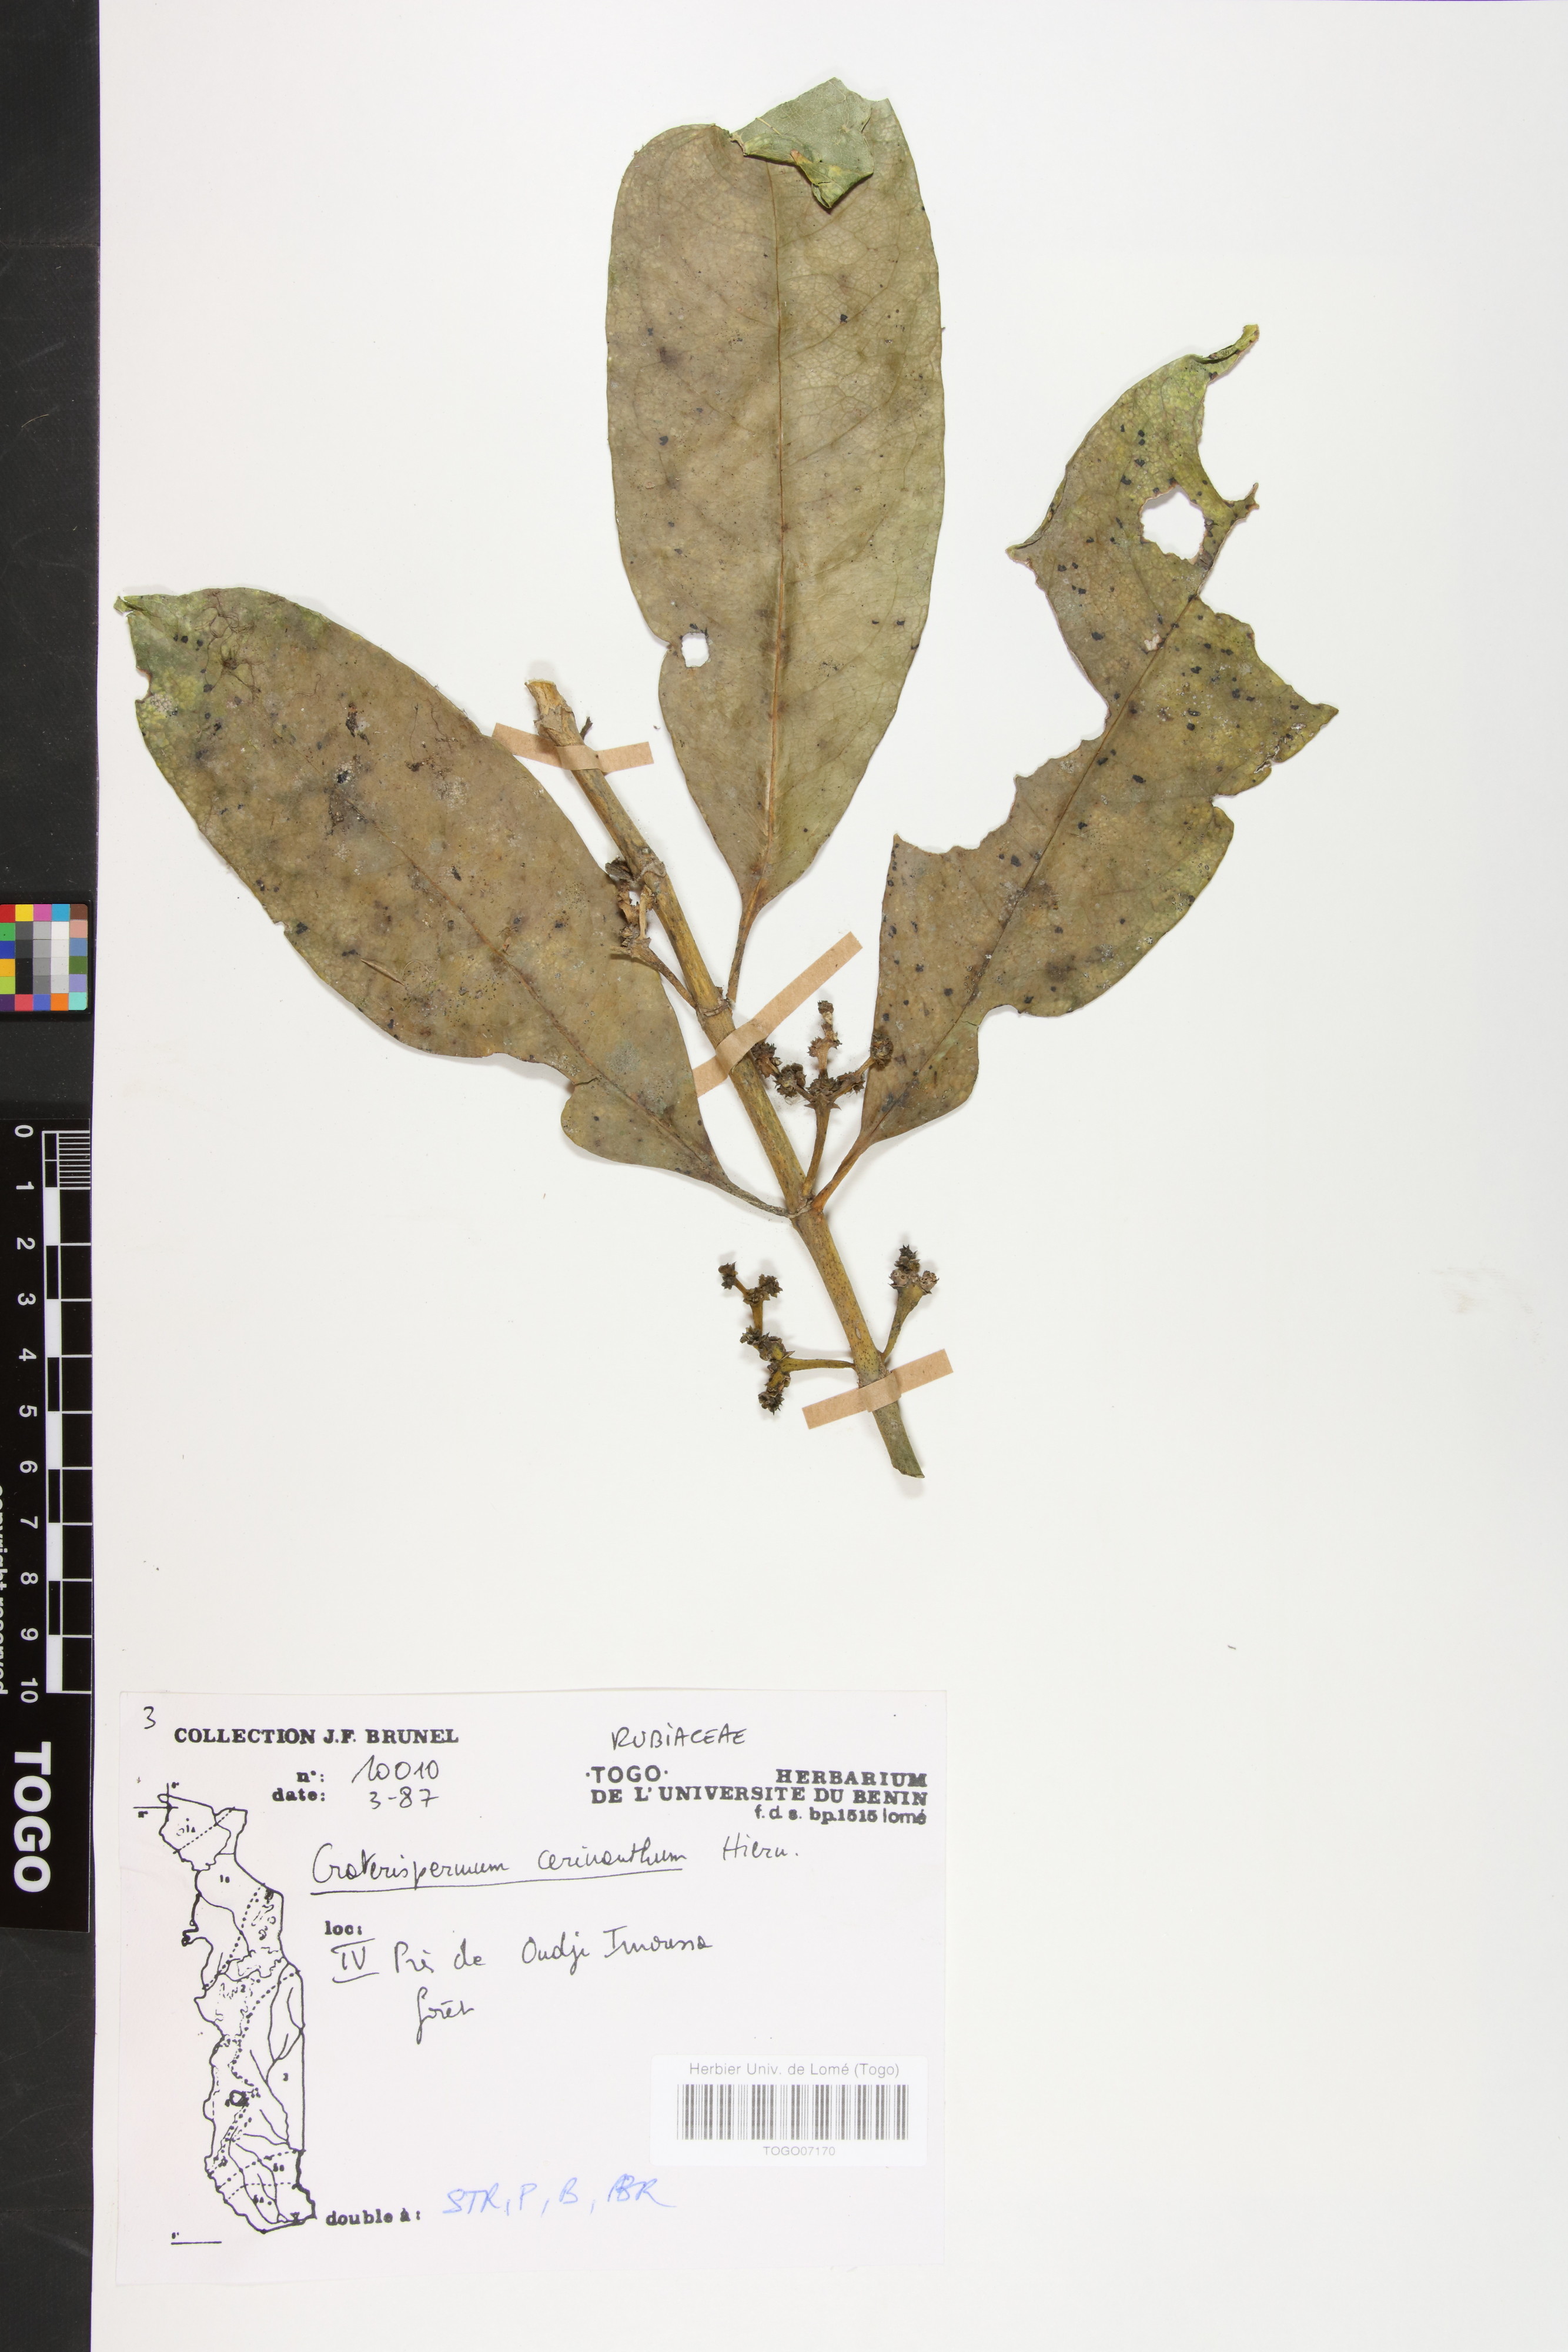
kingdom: Plantae
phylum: Tracheophyta
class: Magnoliopsida
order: Gentianales
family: Rubiaceae
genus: Craterispermum
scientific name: Craterispermum cerinanthum
